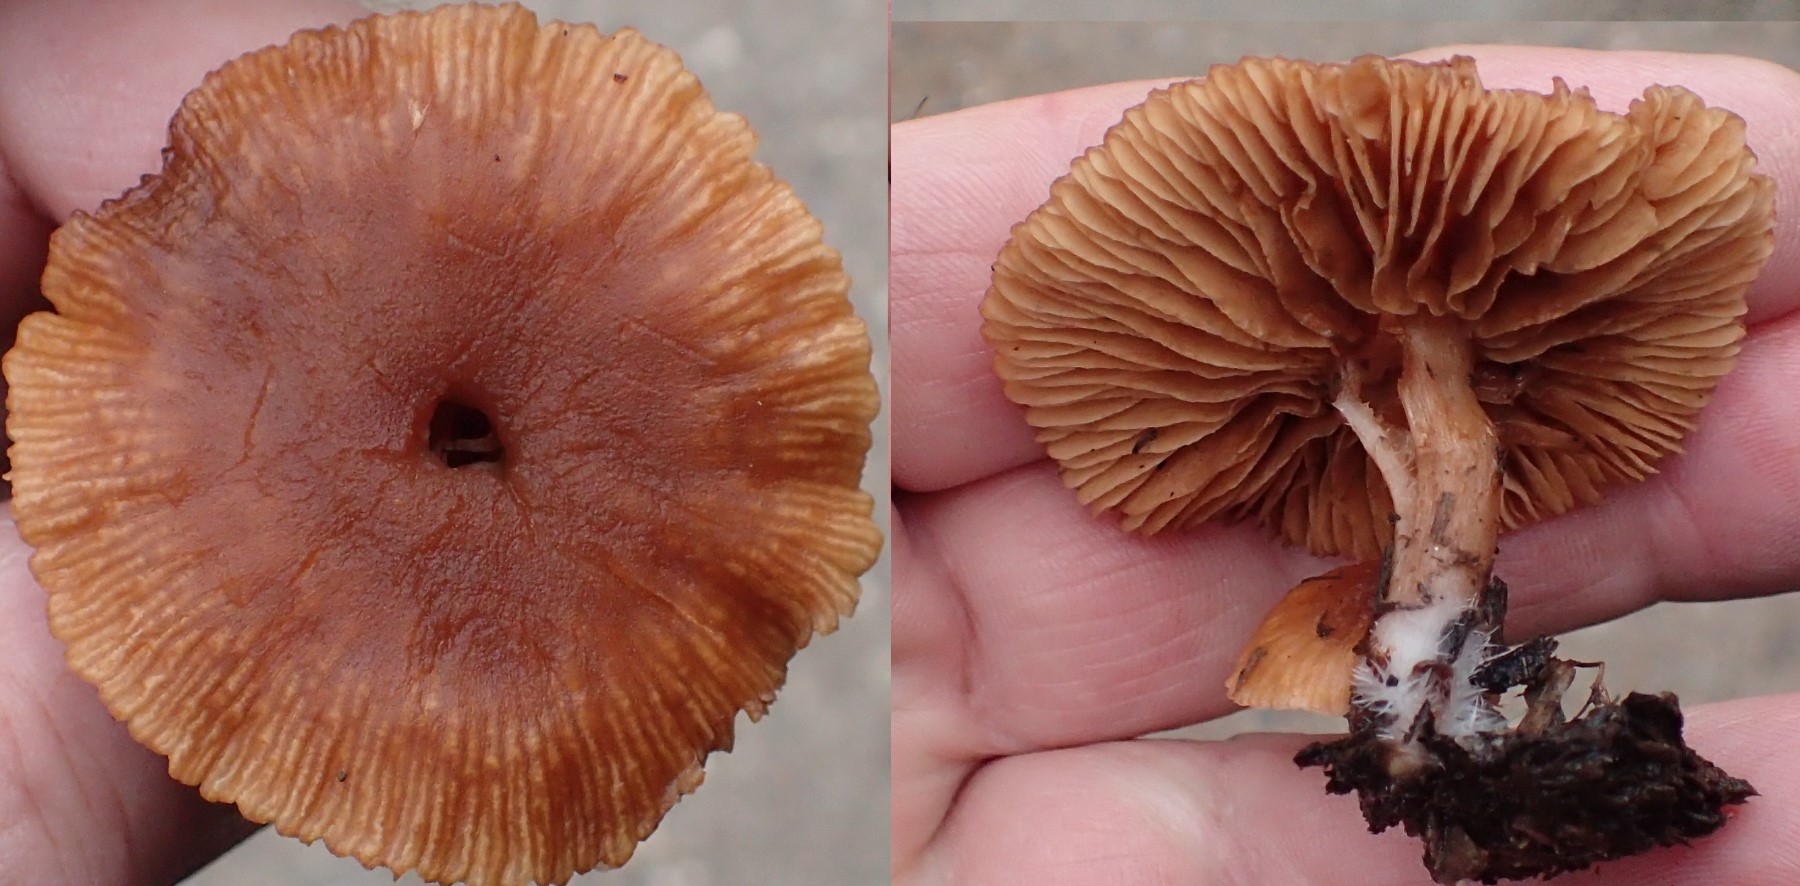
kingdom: Fungi
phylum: Basidiomycota
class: Agaricomycetes
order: Agaricales
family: Tubariaceae
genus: Tubaria
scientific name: Tubaria furfuracea
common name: kliddet fnughat
